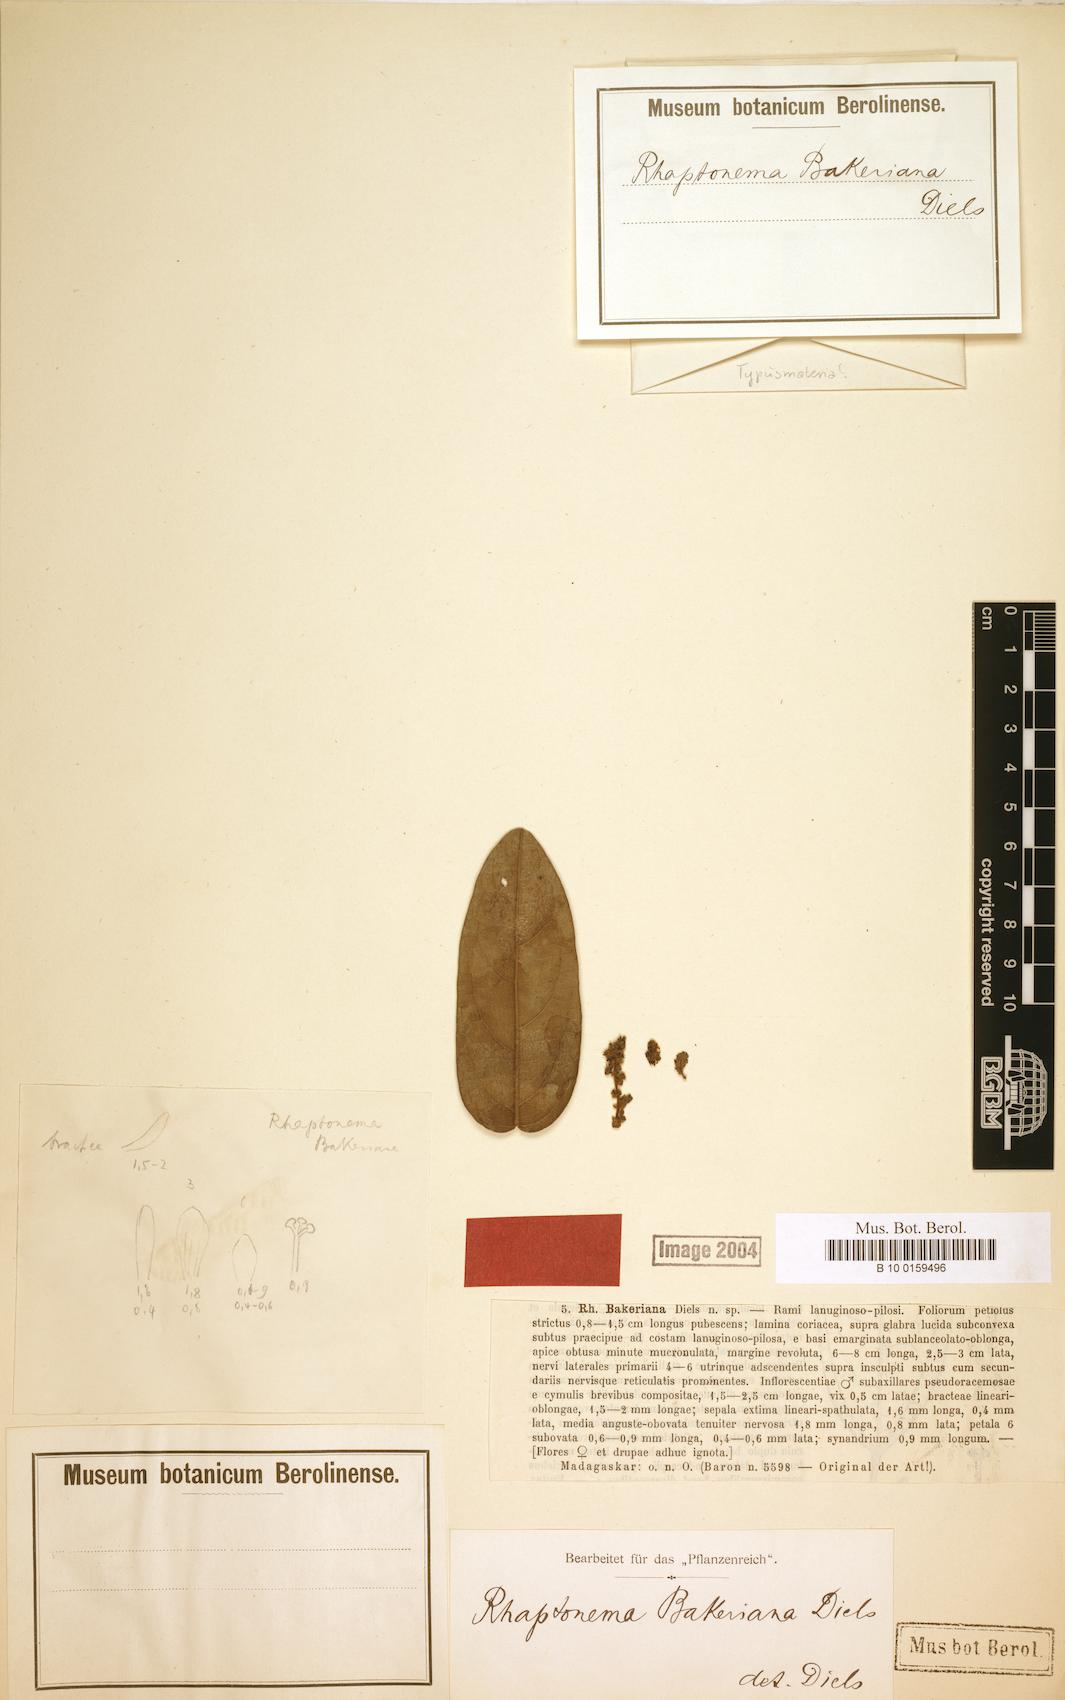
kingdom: Plantae
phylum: Tracheophyta
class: Magnoliopsida
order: Ranunculales
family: Menispermaceae
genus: Rhaptonema
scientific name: Rhaptonema bakeriana
